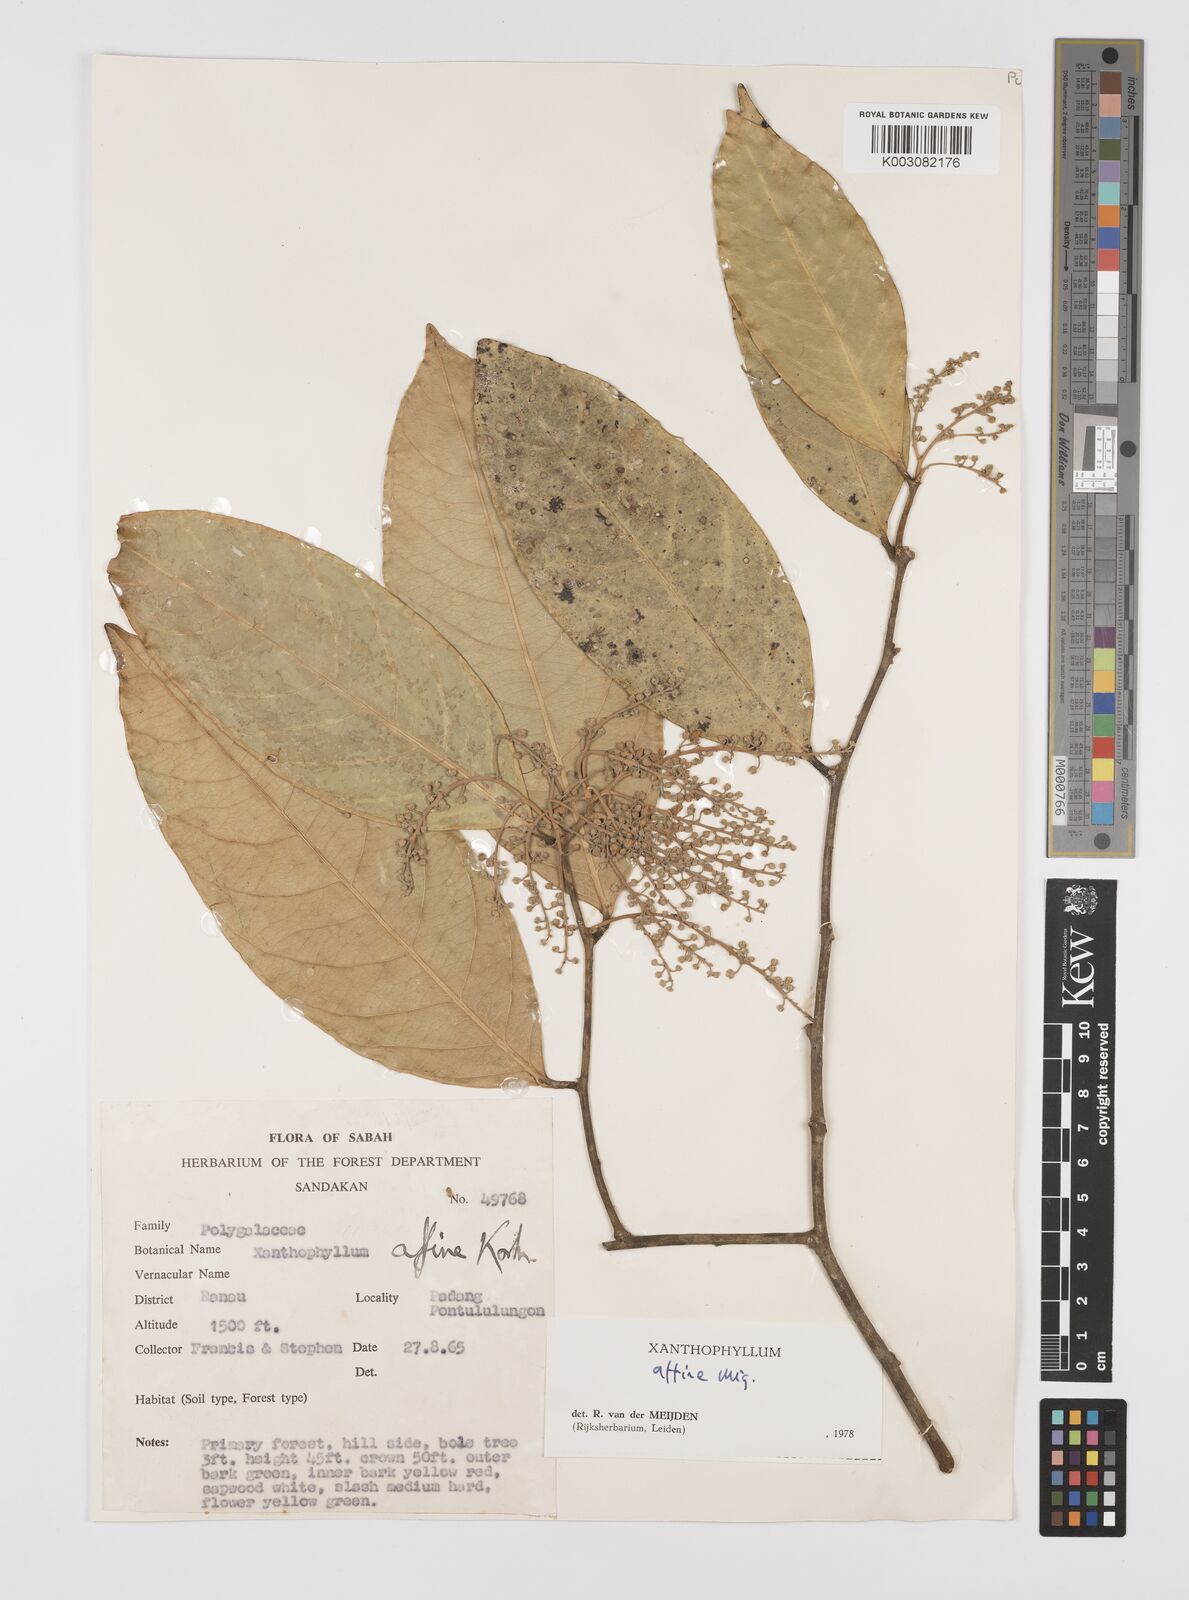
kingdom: Plantae
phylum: Tracheophyta
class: Magnoliopsida
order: Fabales
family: Polygalaceae
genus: Xanthophyllum
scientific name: Xanthophyllum flavescens
